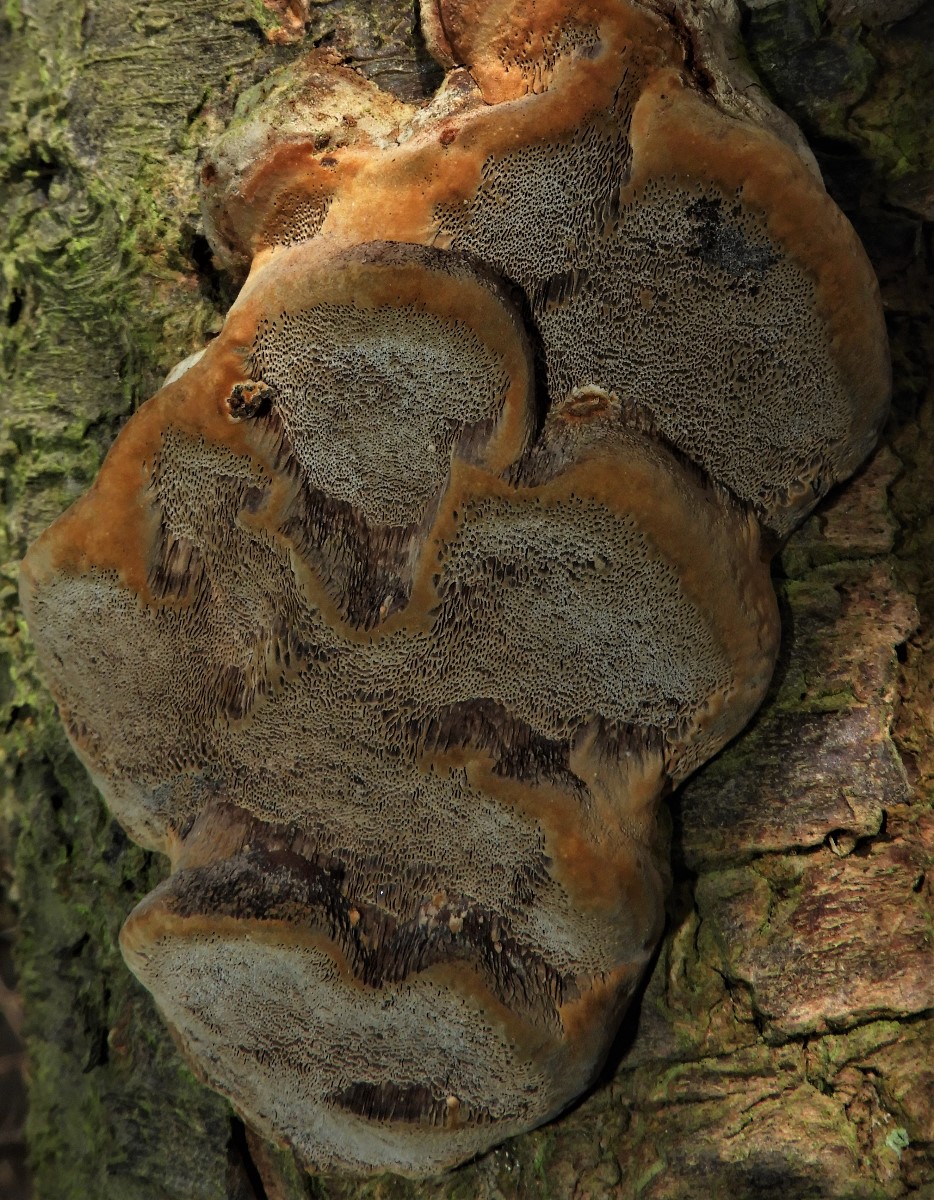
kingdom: Fungi
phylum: Basidiomycota
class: Agaricomycetes
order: Hymenochaetales
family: Hymenochaetaceae
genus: Phellinus
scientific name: Phellinus pomaceus
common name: blomme-ildporesvamp
